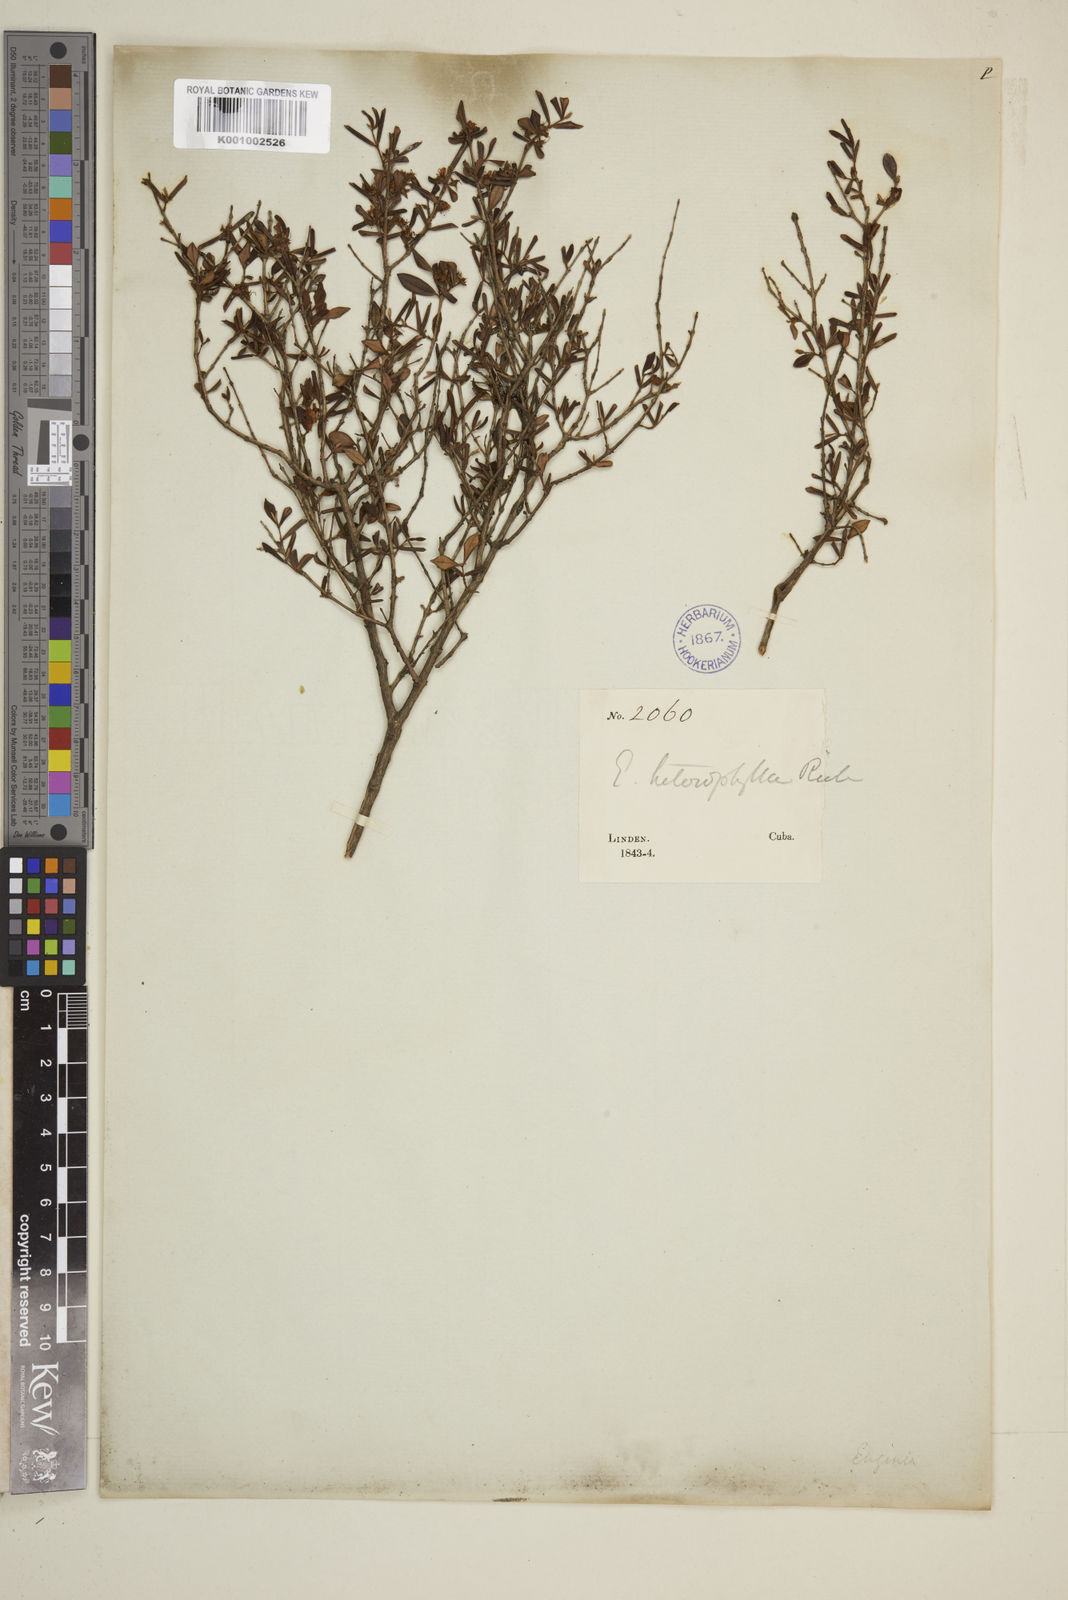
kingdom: Plantae
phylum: Tracheophyta
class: Magnoliopsida
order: Myrtales
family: Myrtaceae
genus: Eugenia
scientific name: Eugenia heterophylla
